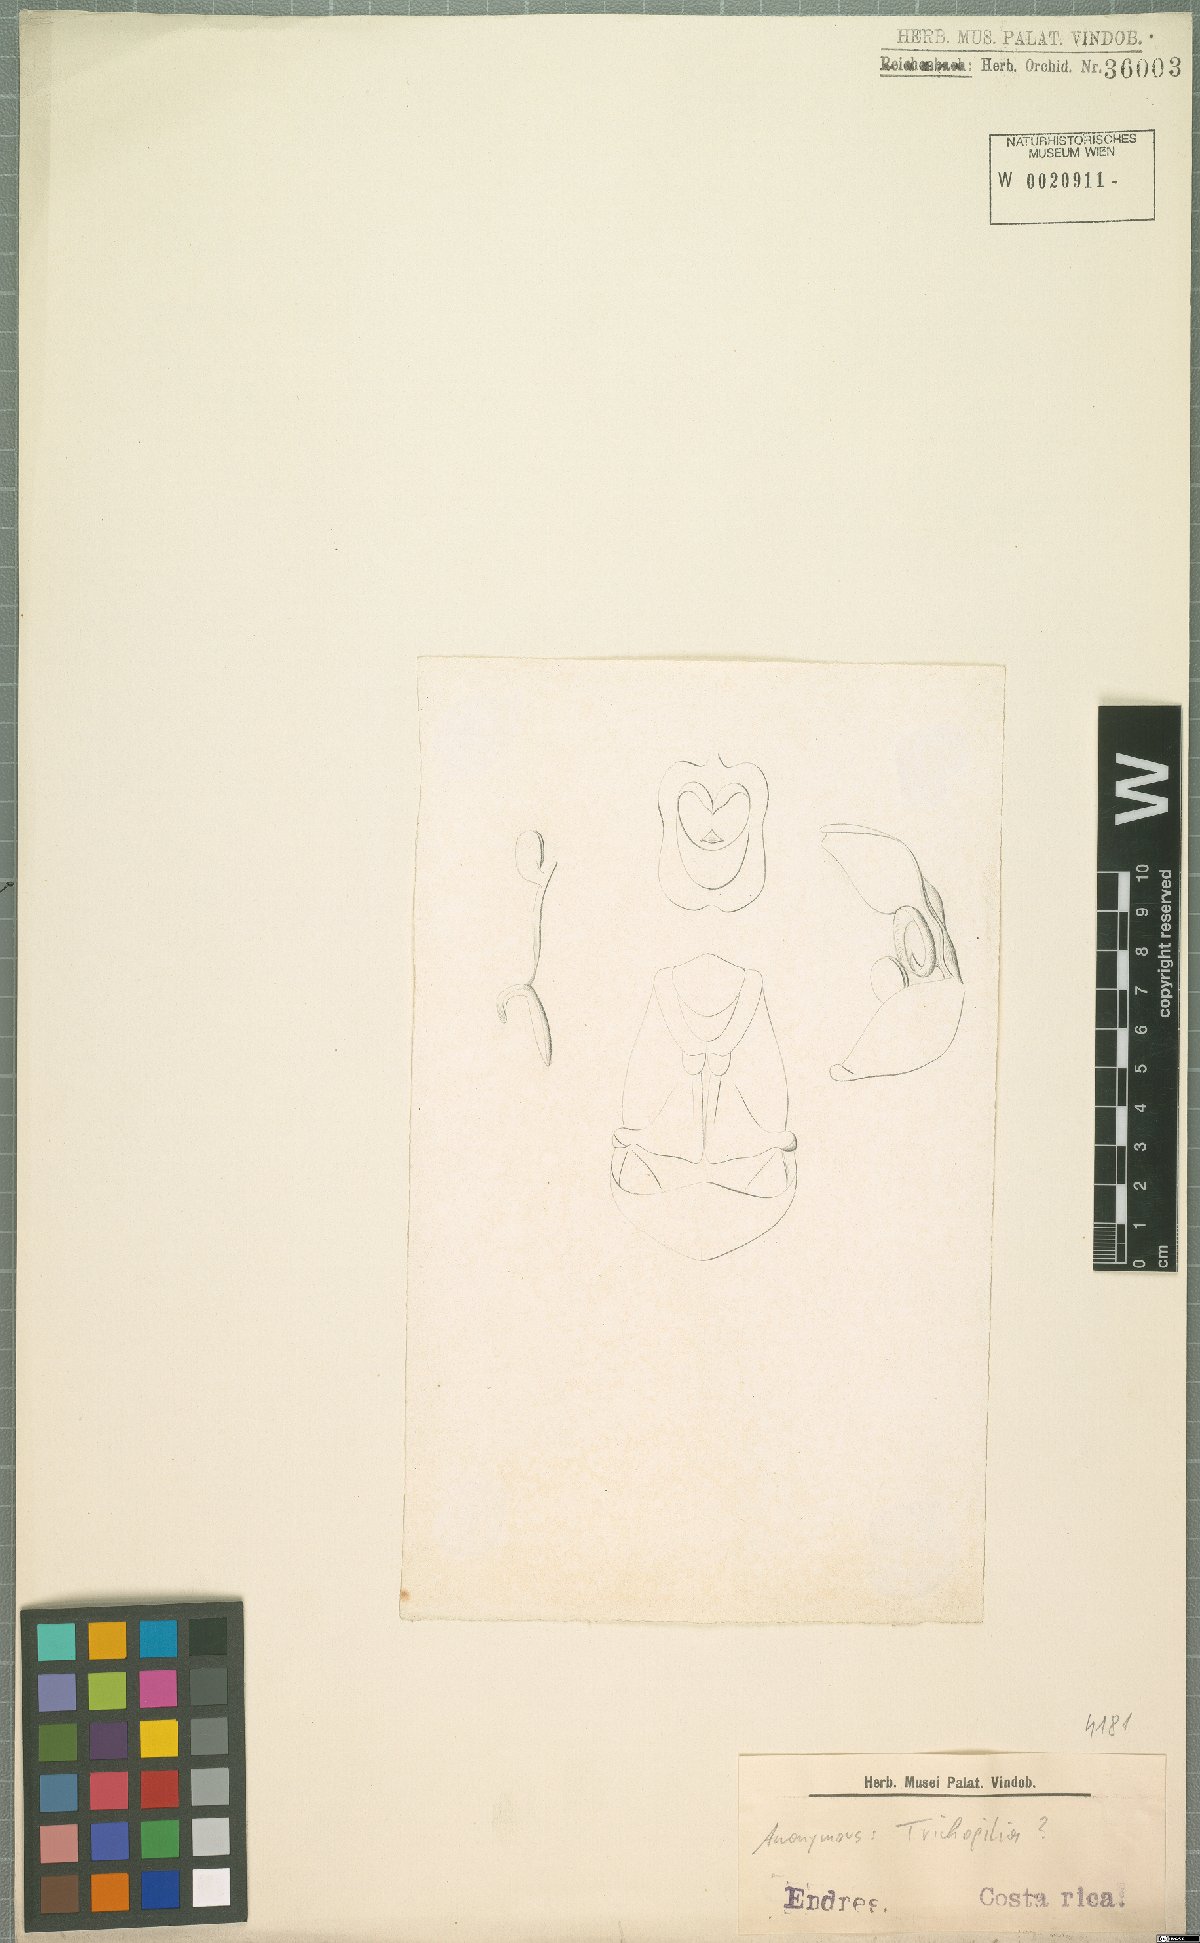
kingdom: Plantae
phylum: Tracheophyta
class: Liliopsida
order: Asparagales
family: Orchidaceae
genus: Trichopilia
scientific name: Trichopilia
